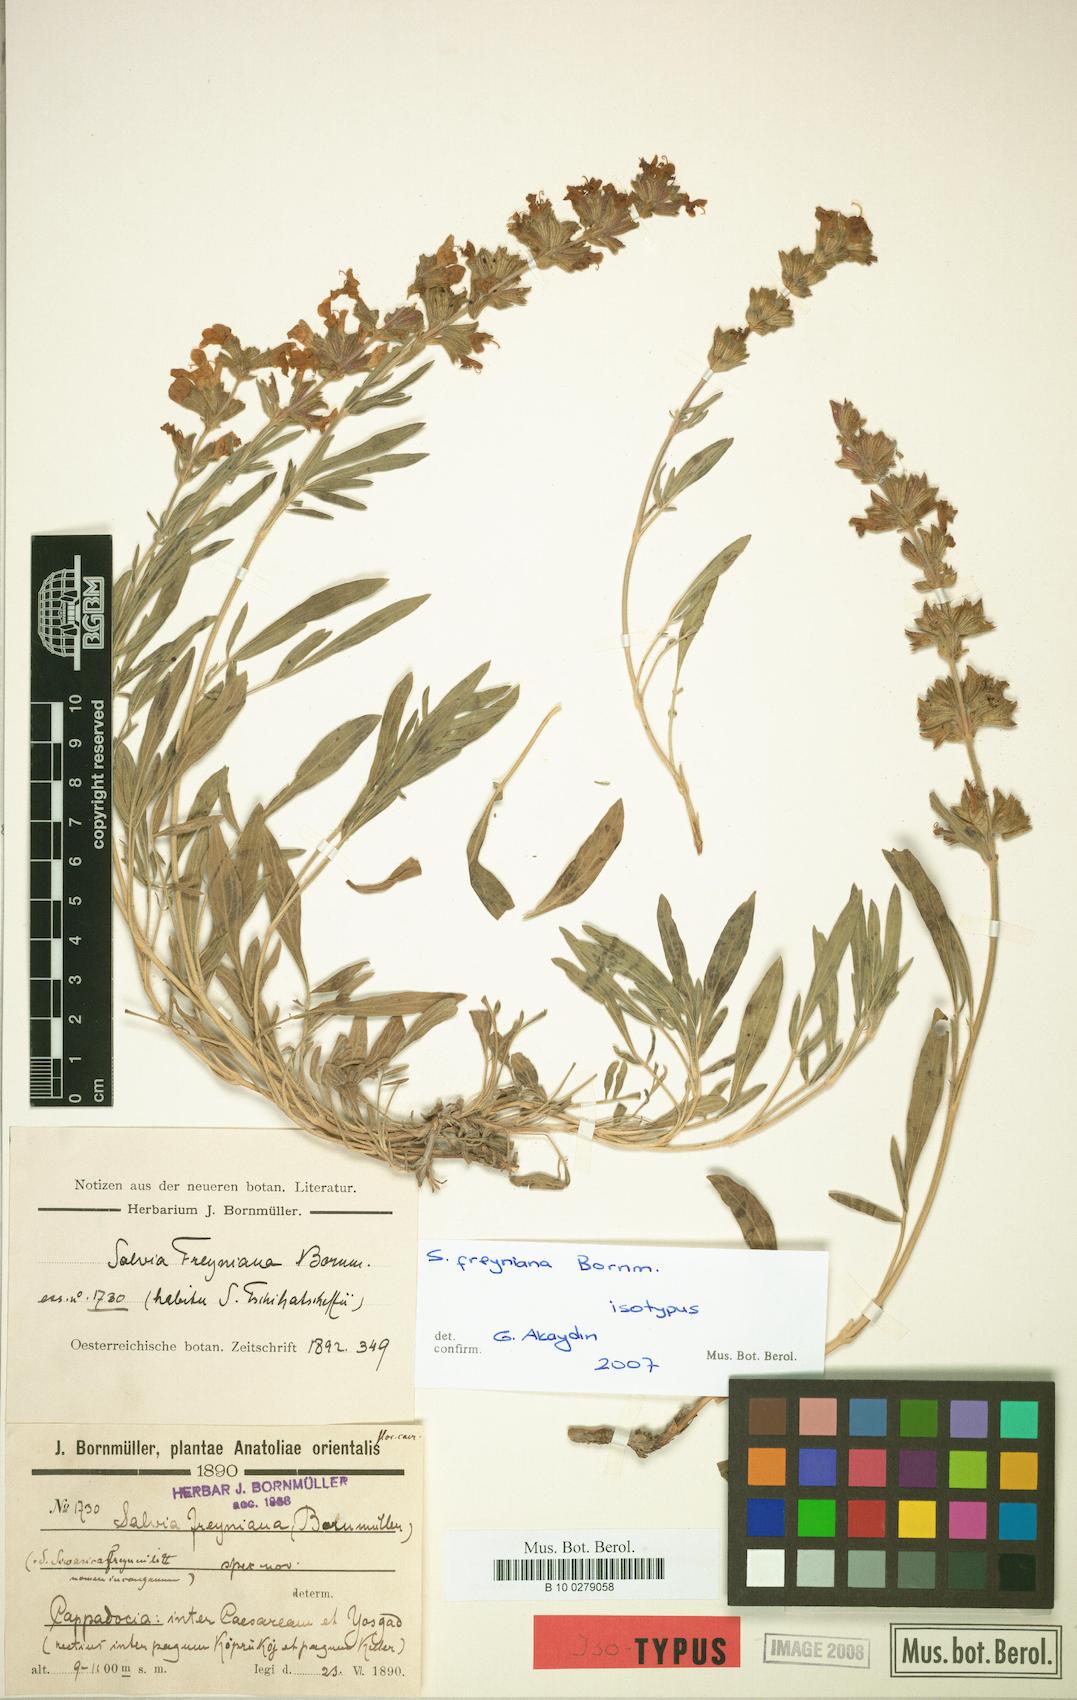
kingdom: Plantae
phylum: Tracheophyta
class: Magnoliopsida
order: Lamiales
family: Lamiaceae
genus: Salvia
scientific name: Salvia freyniana
